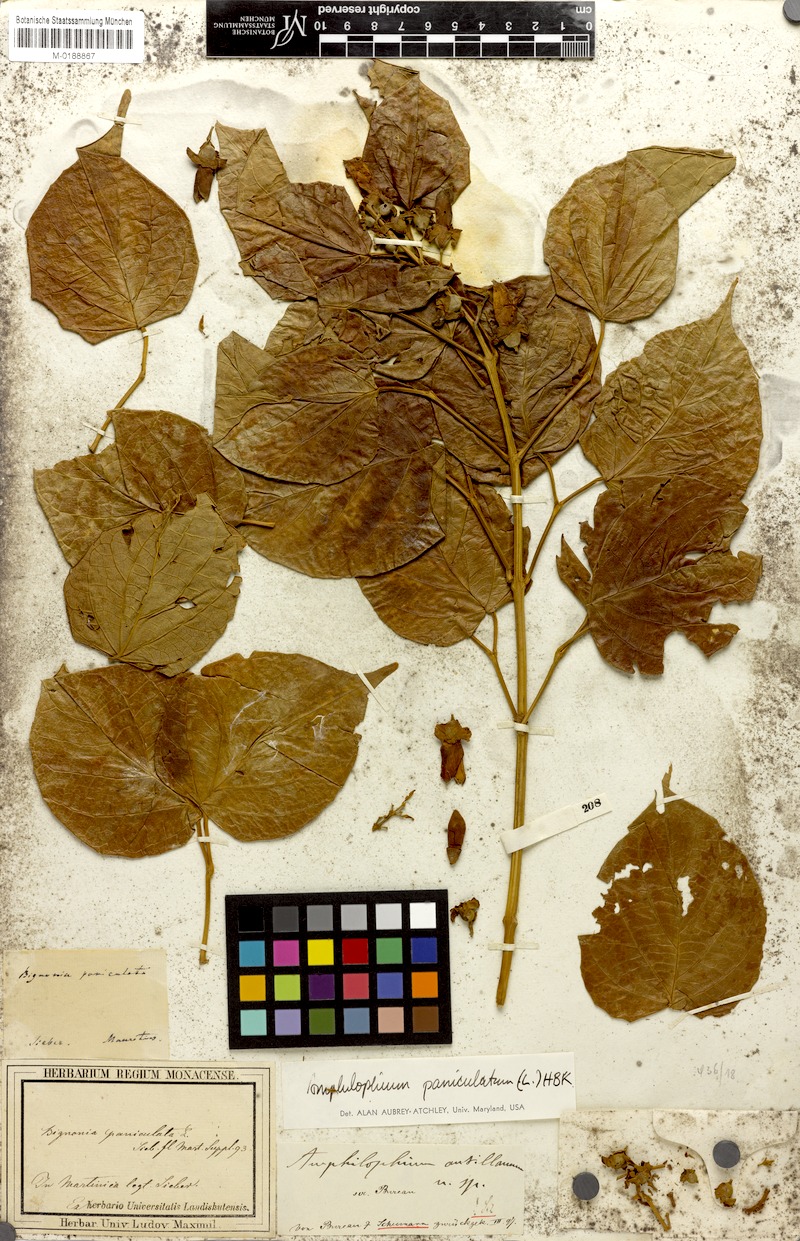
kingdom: Plantae
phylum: Tracheophyta
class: Magnoliopsida
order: Lamiales
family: Bignoniaceae
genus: Amphilophium
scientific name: Amphilophium paniculatum
